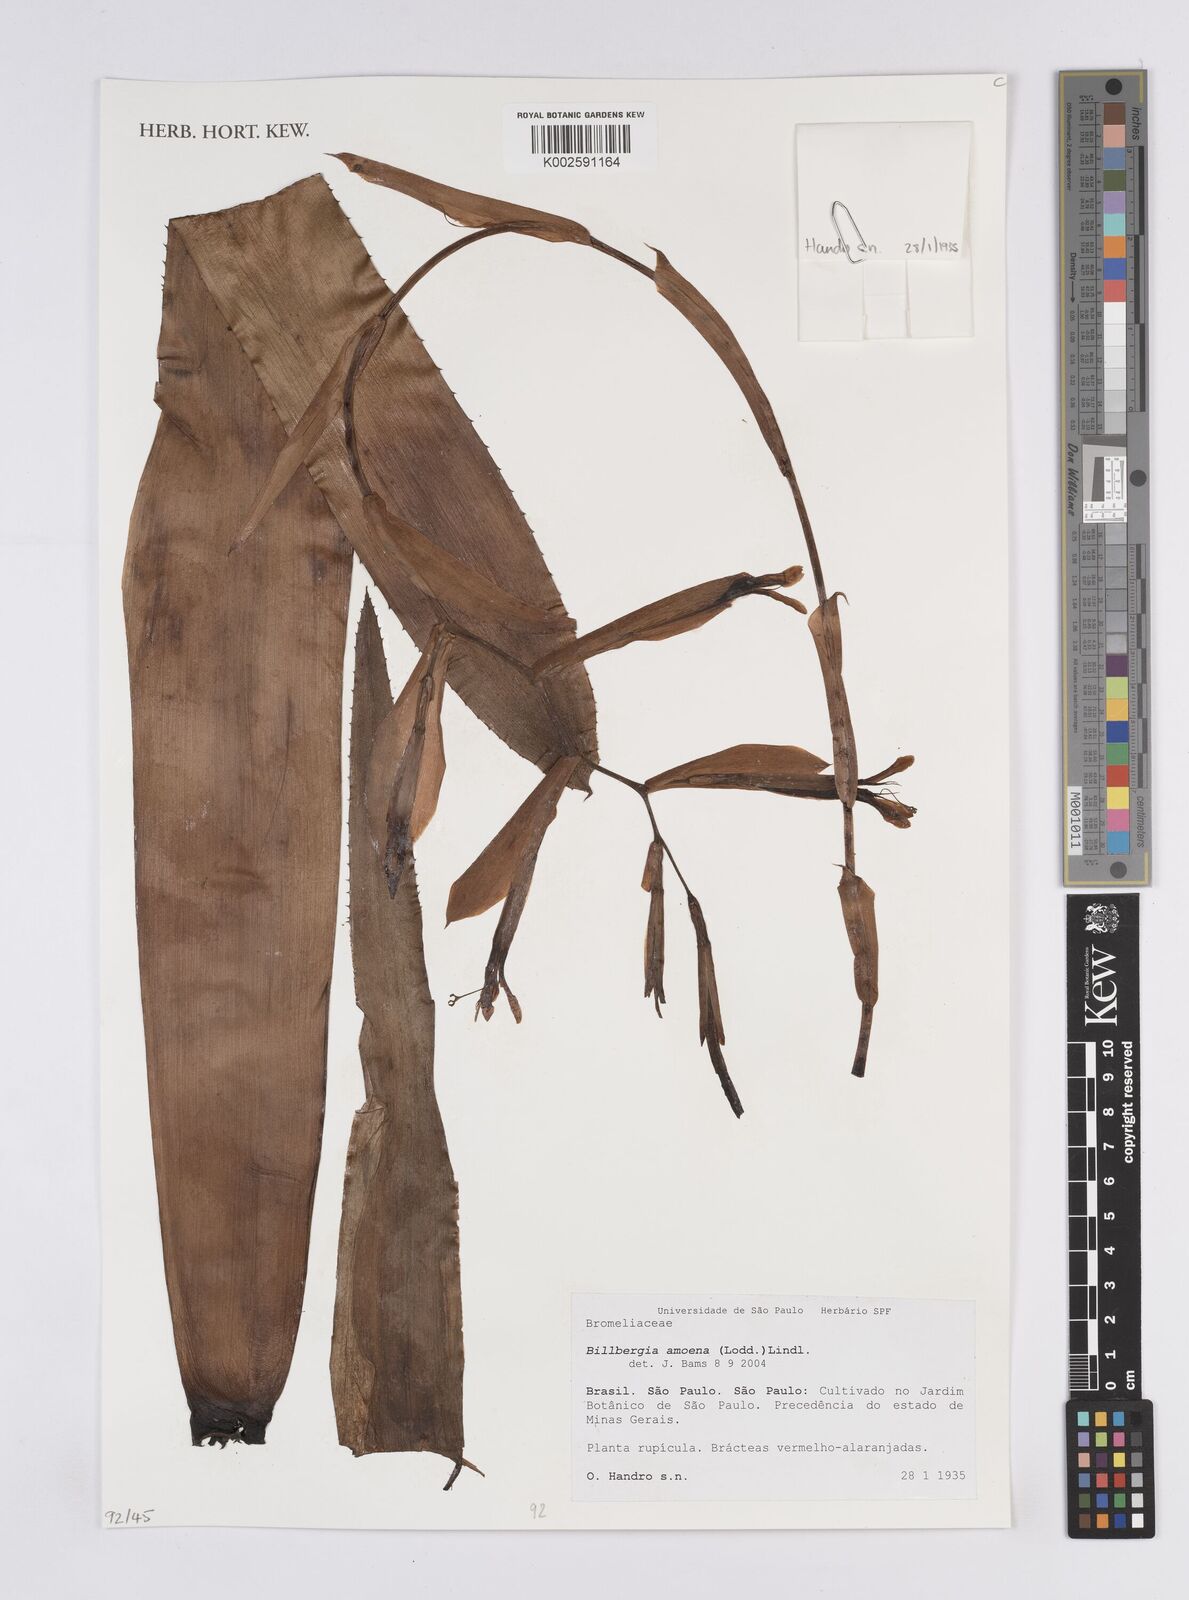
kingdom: Plantae
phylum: Tracheophyta
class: Liliopsida
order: Poales
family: Bromeliaceae
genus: Billbergia
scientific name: Billbergia amoena
